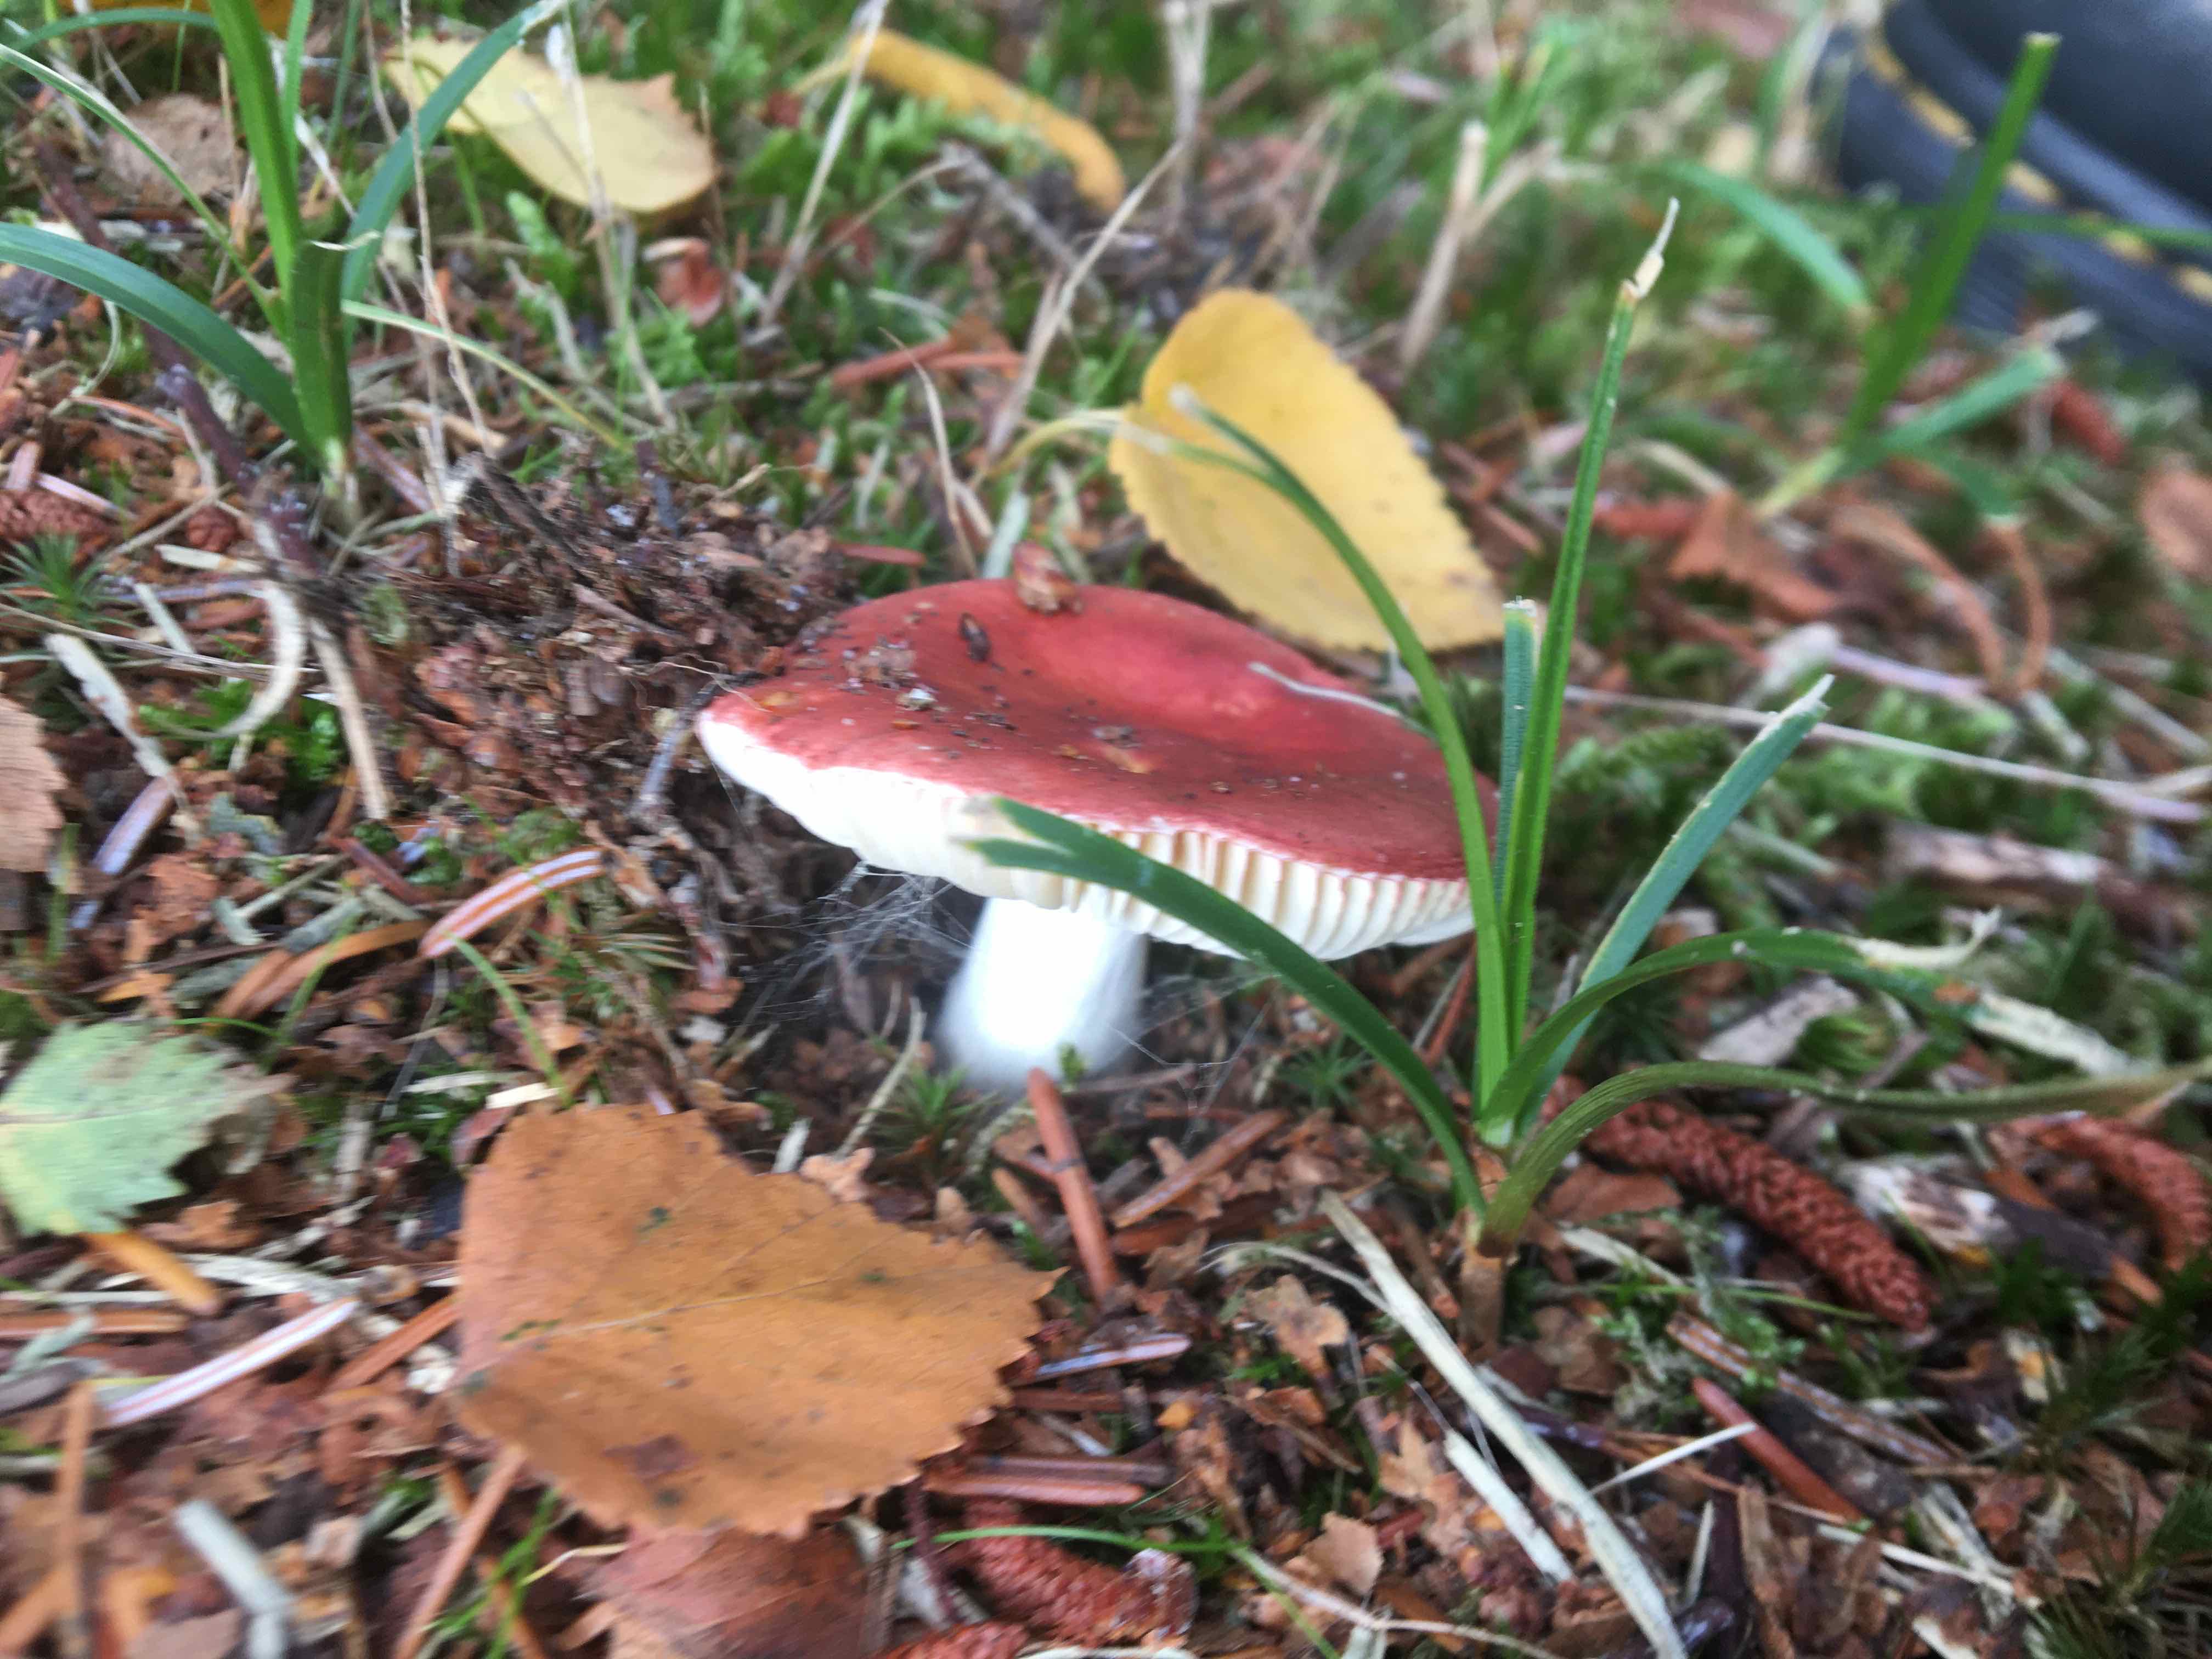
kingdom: Fungi
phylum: Basidiomycota
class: Agaricomycetes
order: Russulales
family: Russulaceae
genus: Russula
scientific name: Russula
